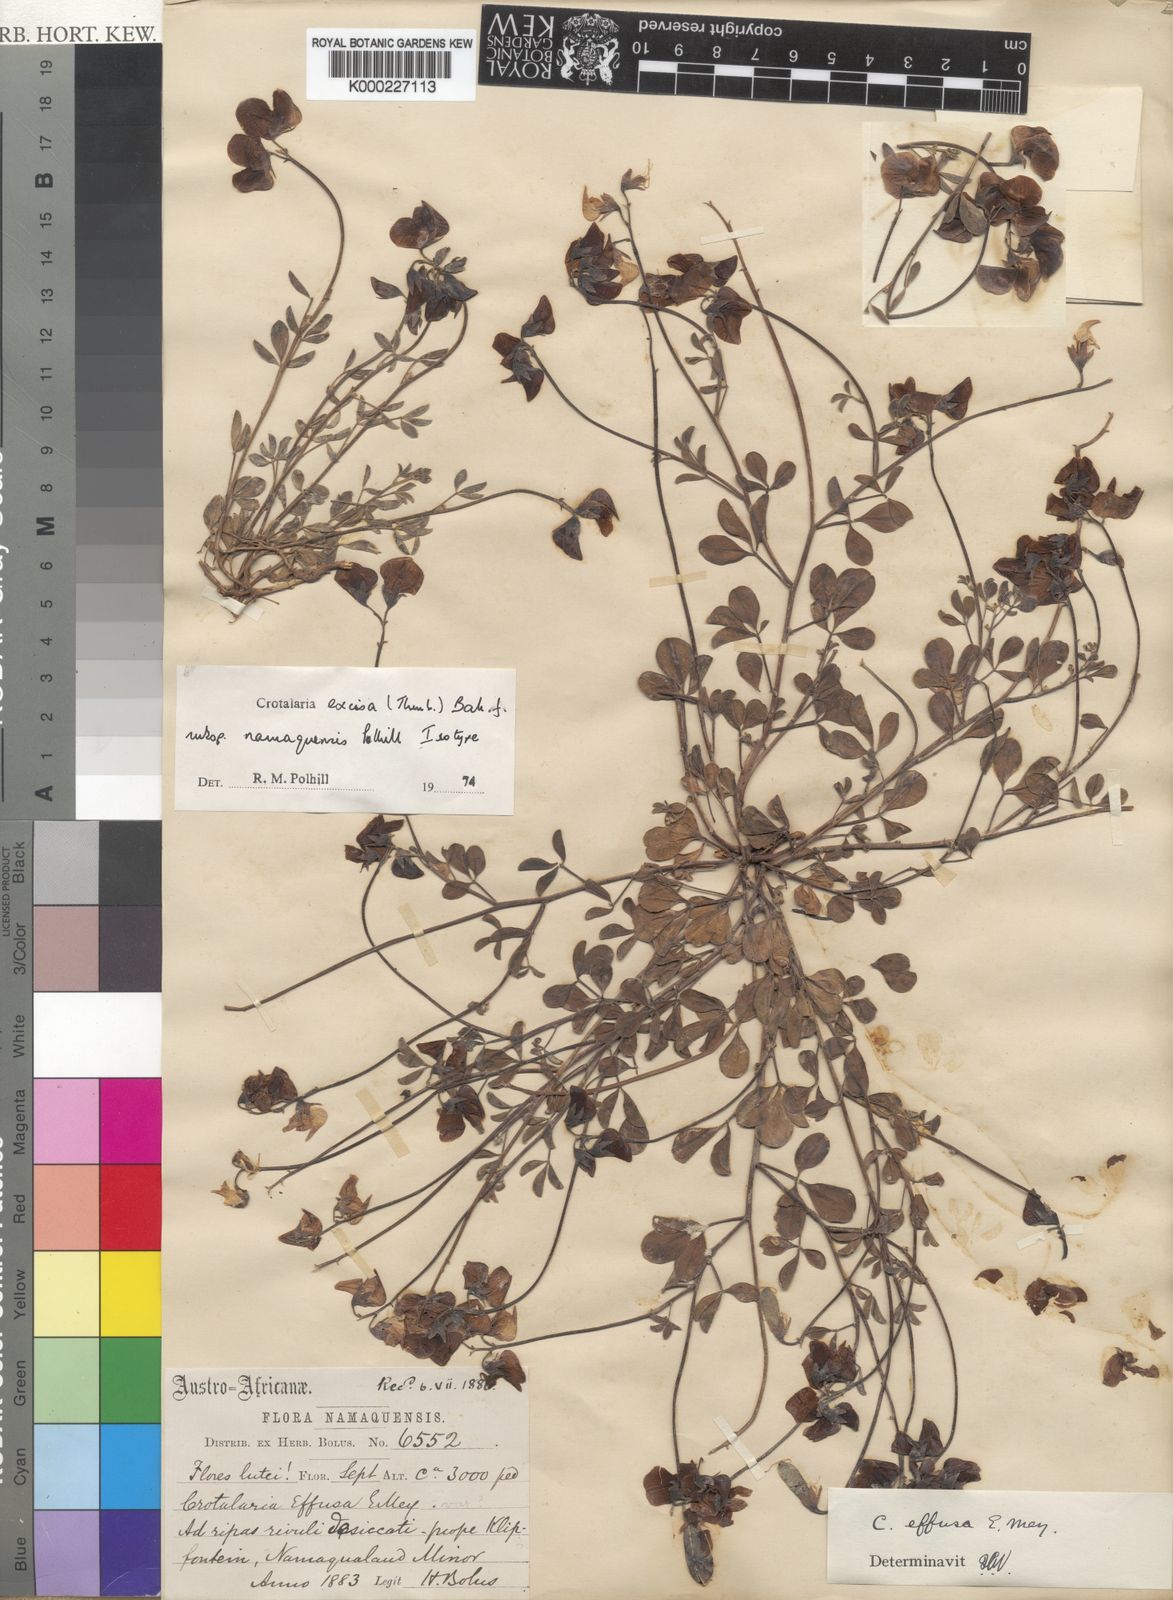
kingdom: Plantae
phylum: Tracheophyta
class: Magnoliopsida
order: Fabales
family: Fabaceae
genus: Crotalaria
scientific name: Crotalaria excisa
